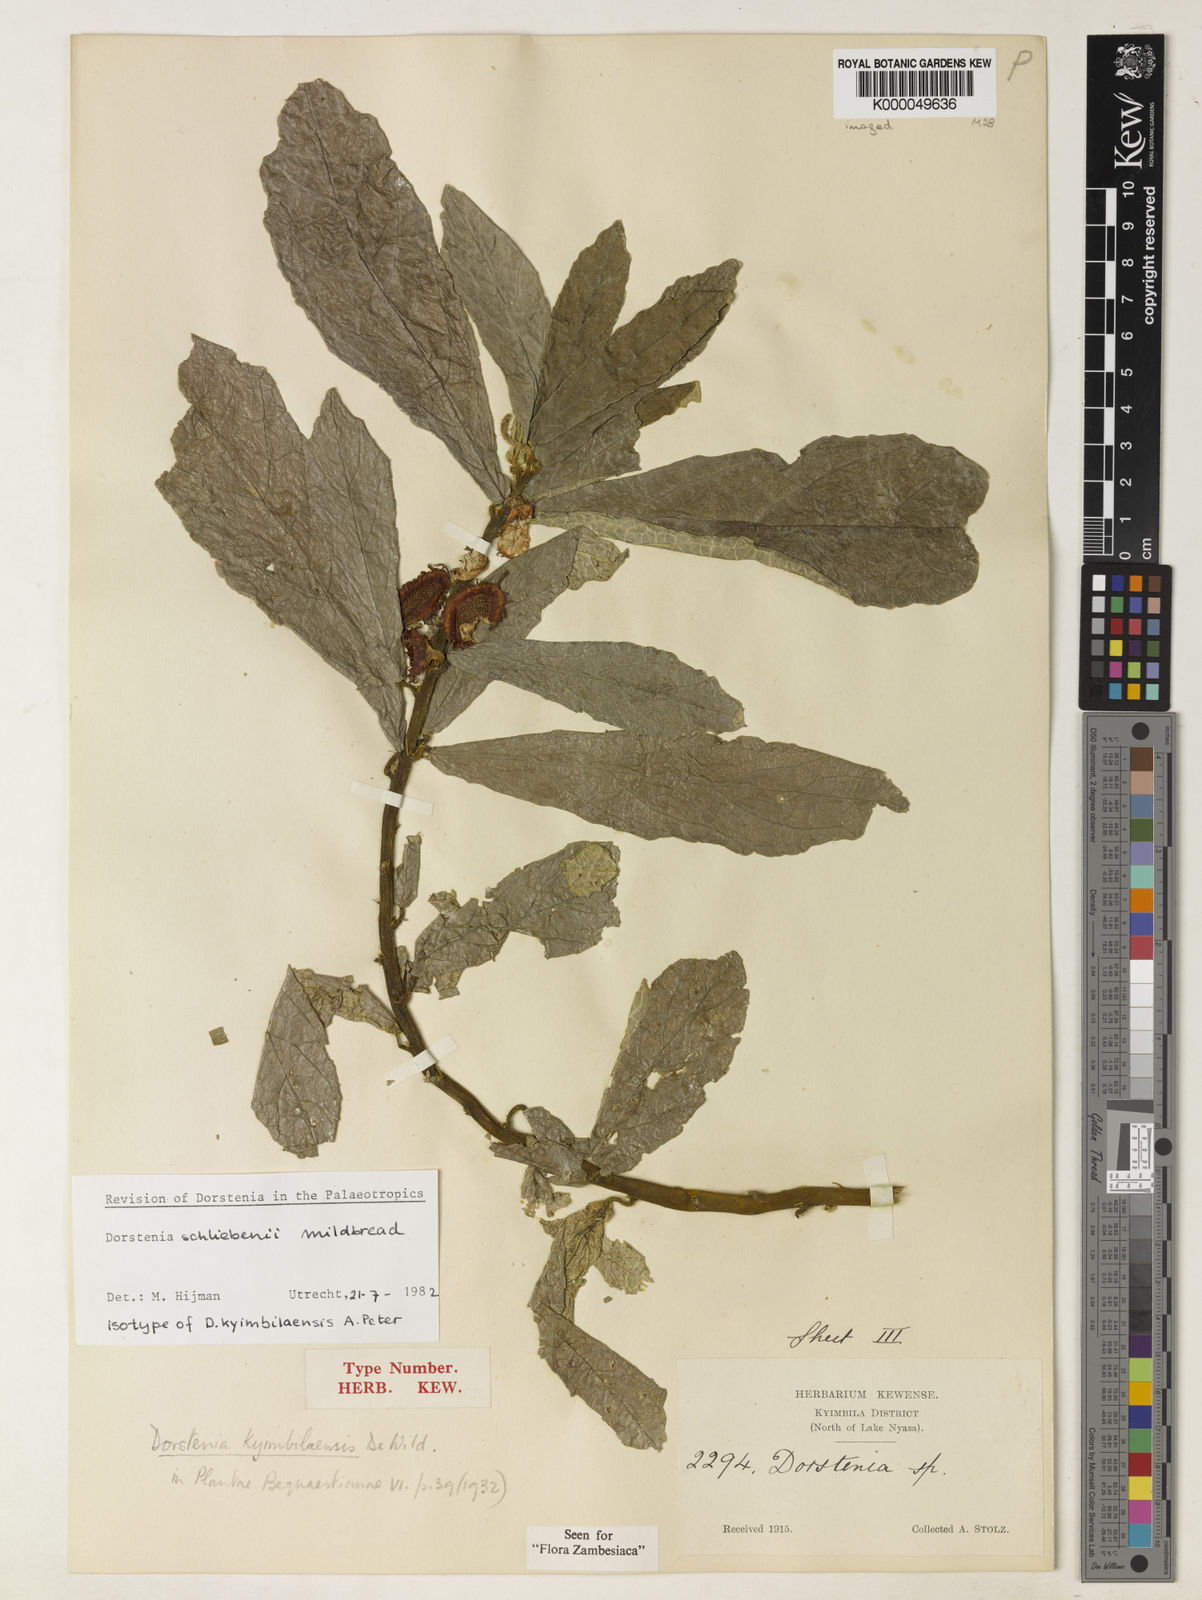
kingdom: Plantae
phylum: Tracheophyta
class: Magnoliopsida
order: Rosales
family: Moraceae
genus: Dorstenia
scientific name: Dorstenia schliebenii
